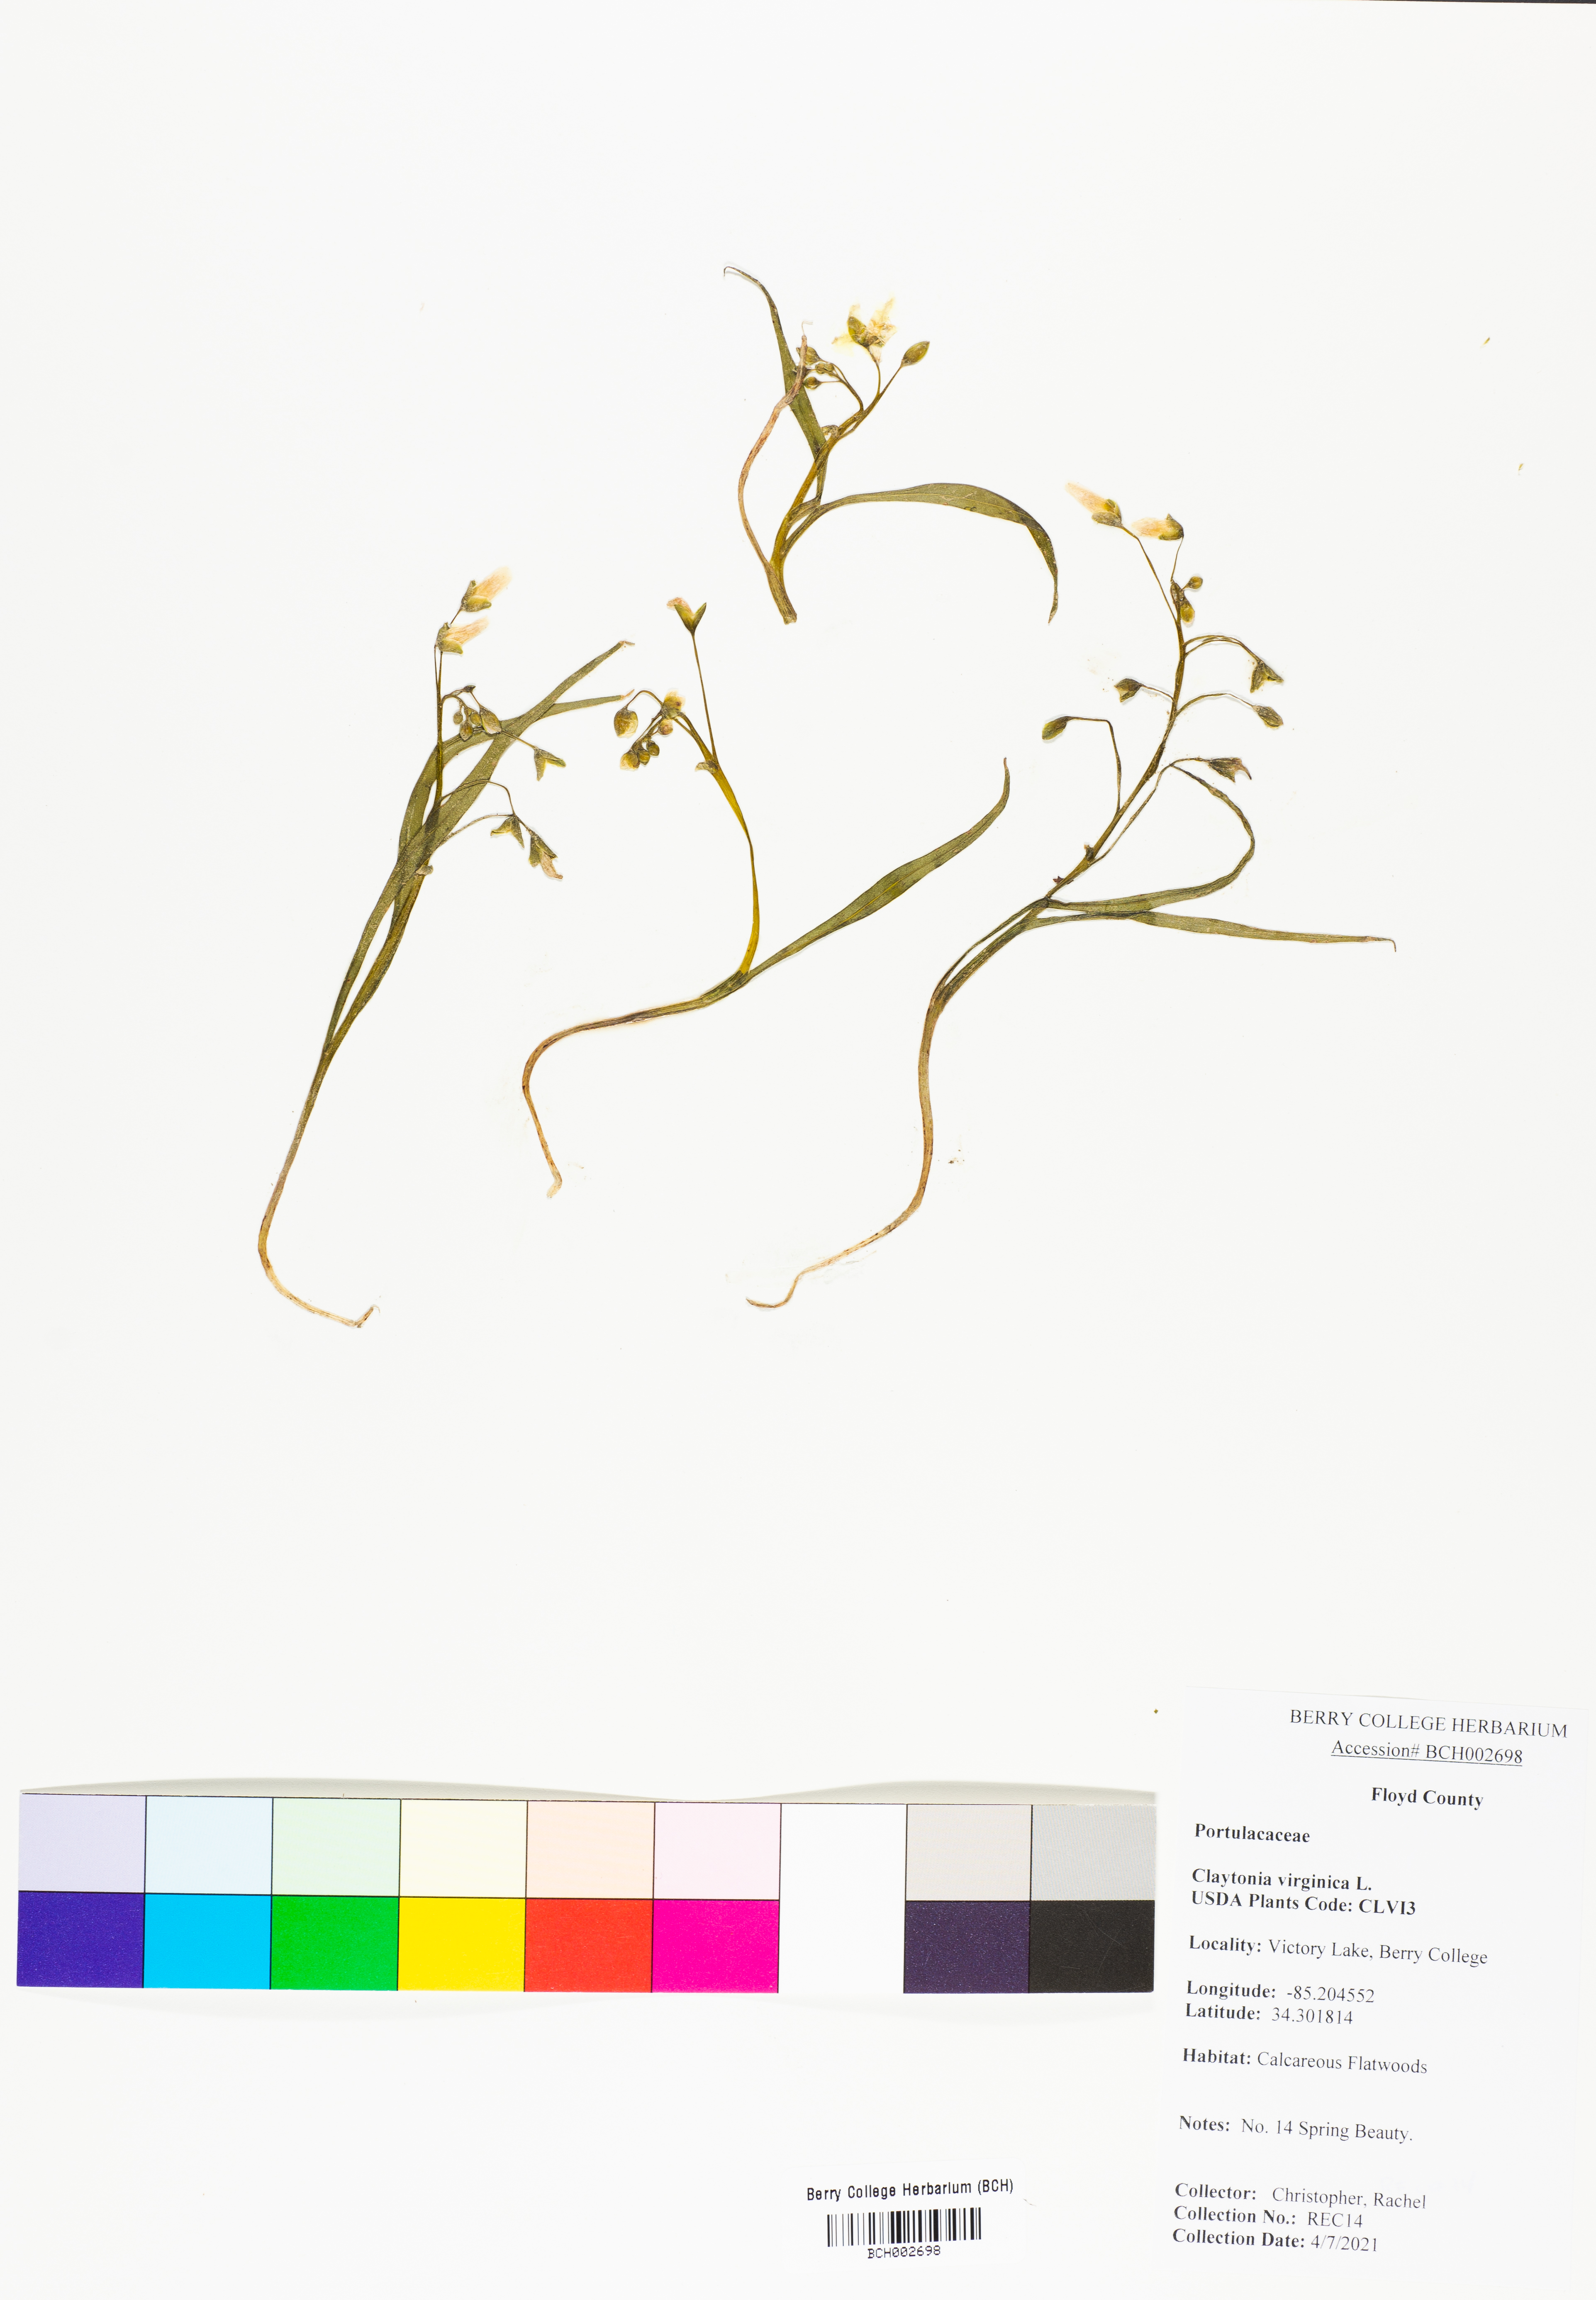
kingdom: Plantae
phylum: Tracheophyta
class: Magnoliopsida
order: Caryophyllales
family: Montiaceae
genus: Claytonia
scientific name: Claytonia virginica
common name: Virginia springbeauty
